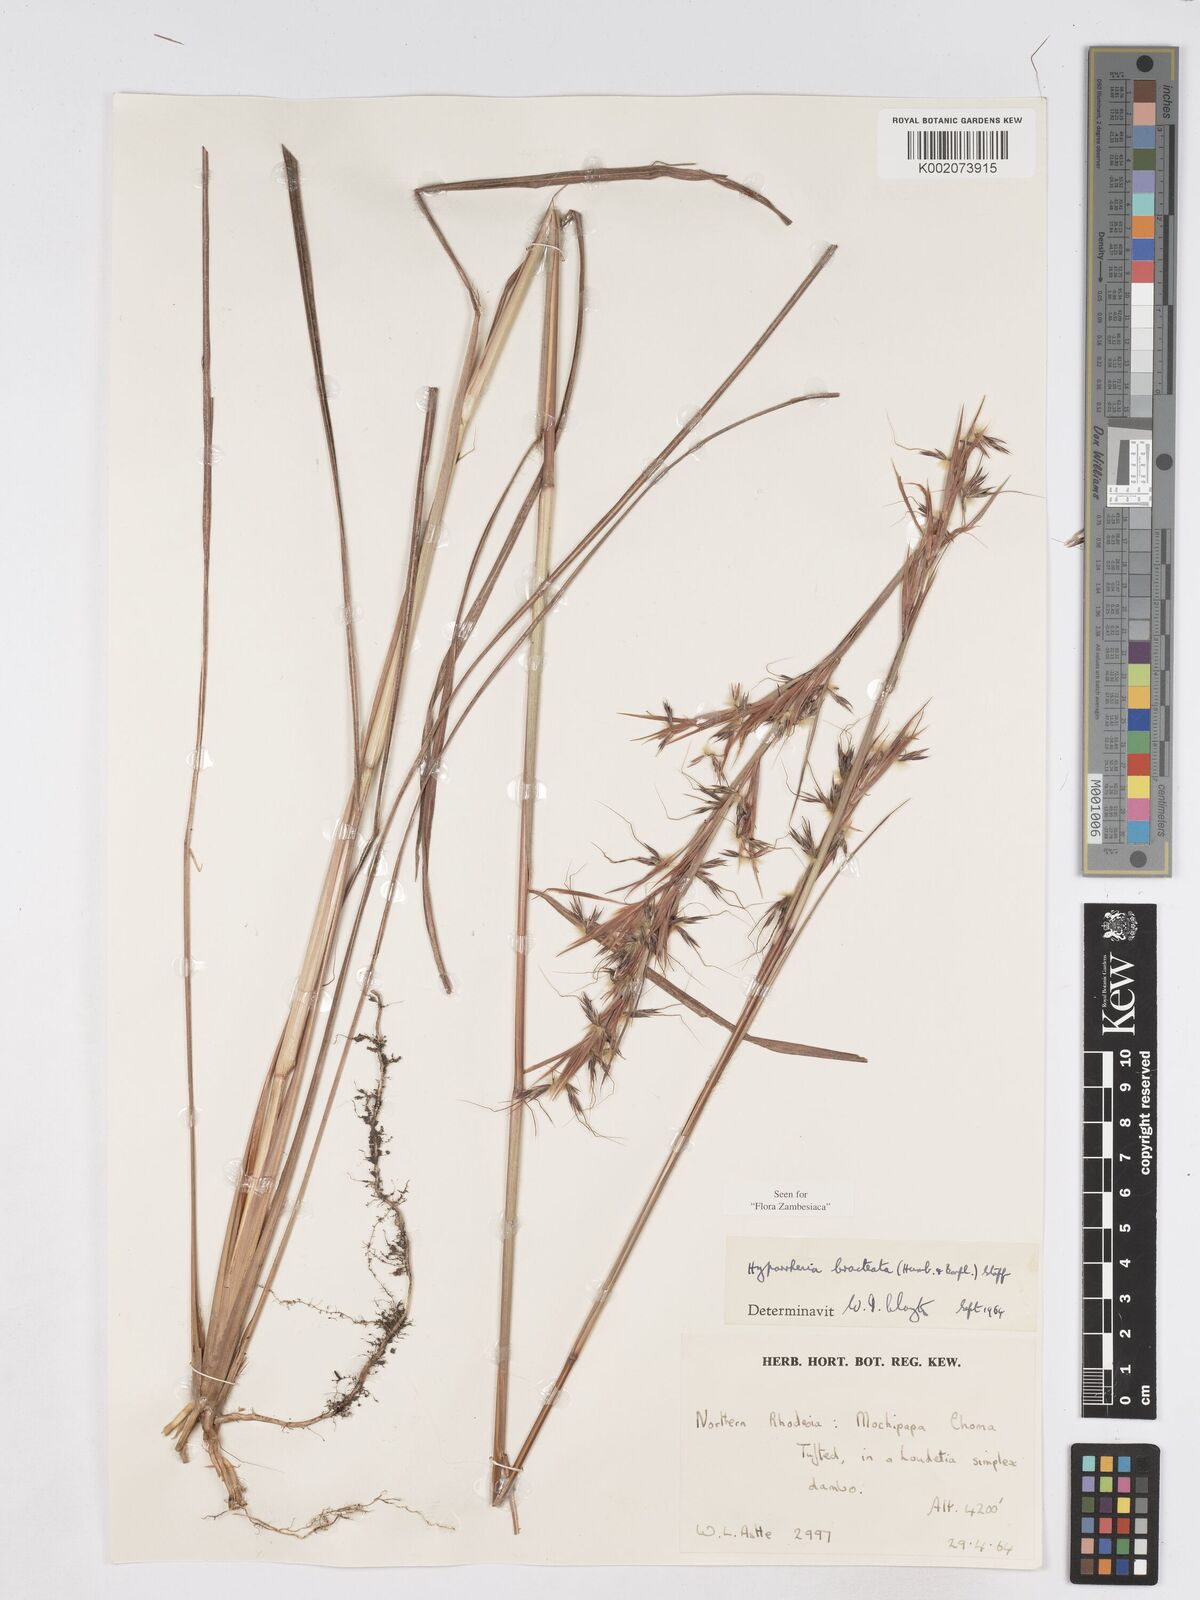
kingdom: Plantae
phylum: Tracheophyta
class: Liliopsida
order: Poales
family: Poaceae
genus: Hyparrhenia
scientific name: Hyparrhenia bracteata
